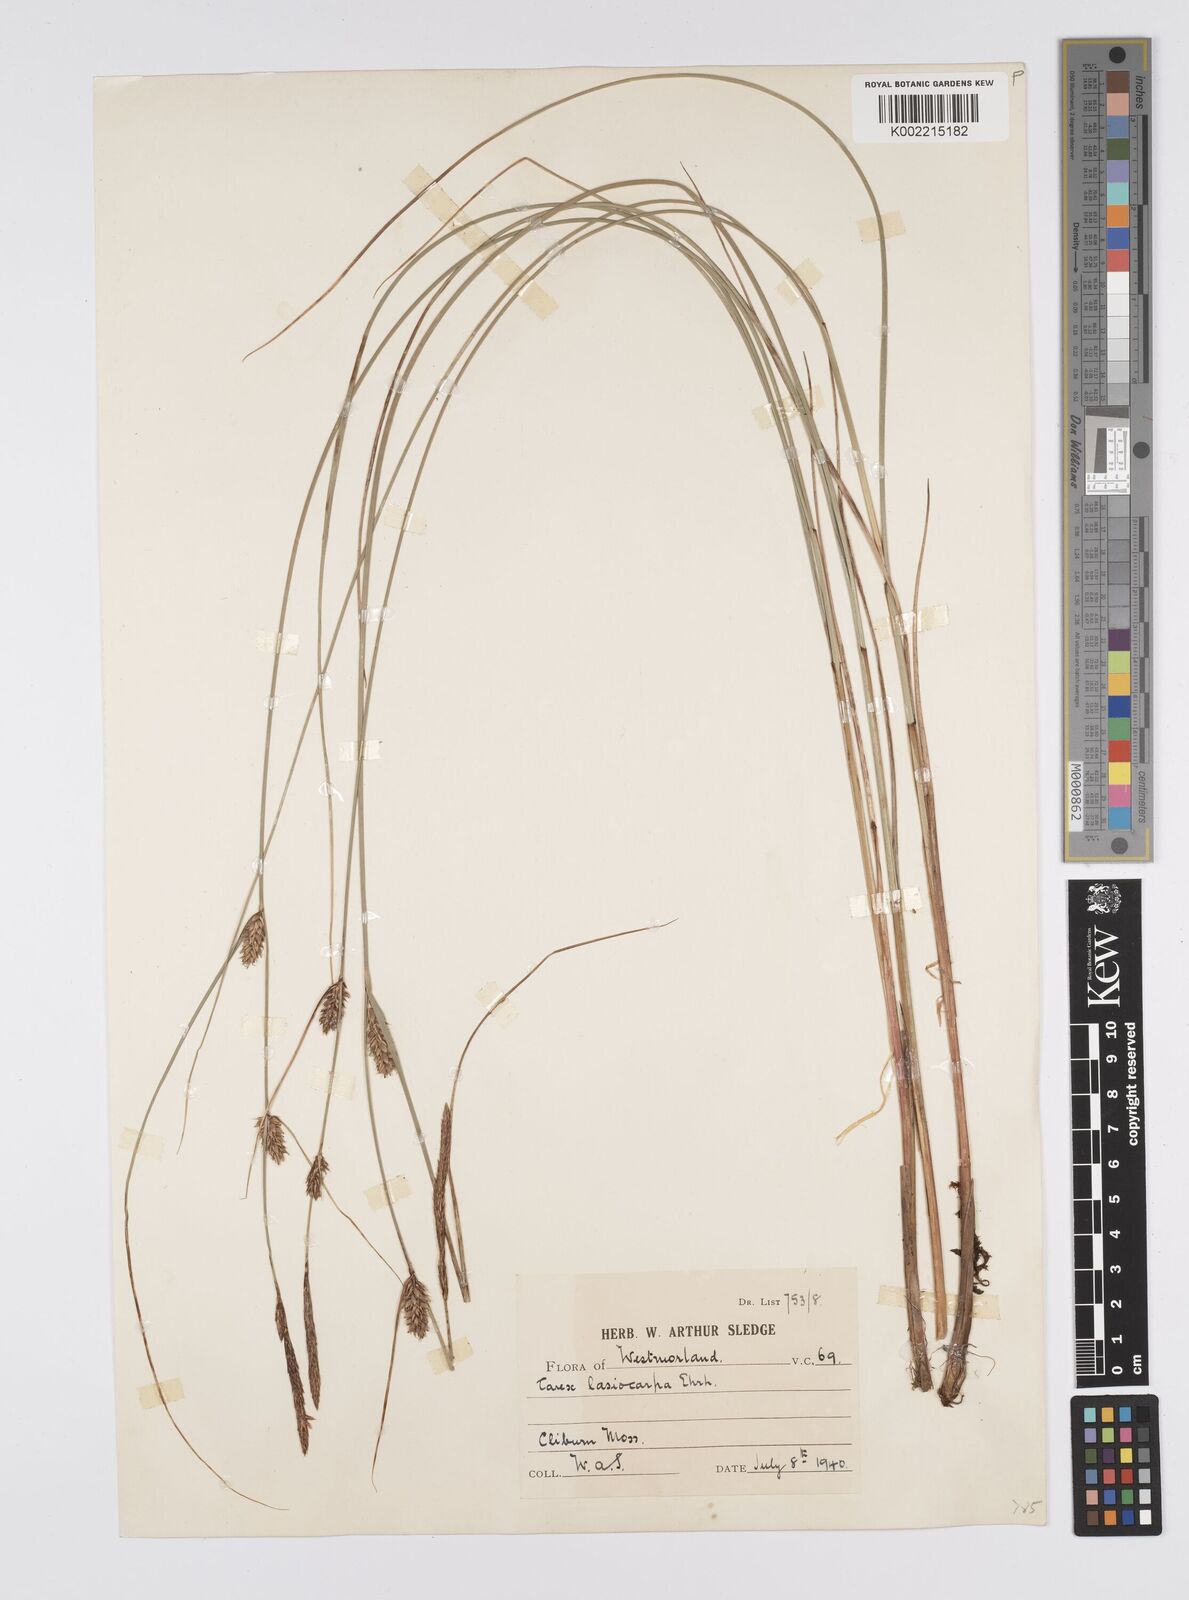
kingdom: Plantae
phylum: Tracheophyta
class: Liliopsida
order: Poales
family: Cyperaceae
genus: Carex
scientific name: Carex lasiocarpa
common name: Slender sedge
